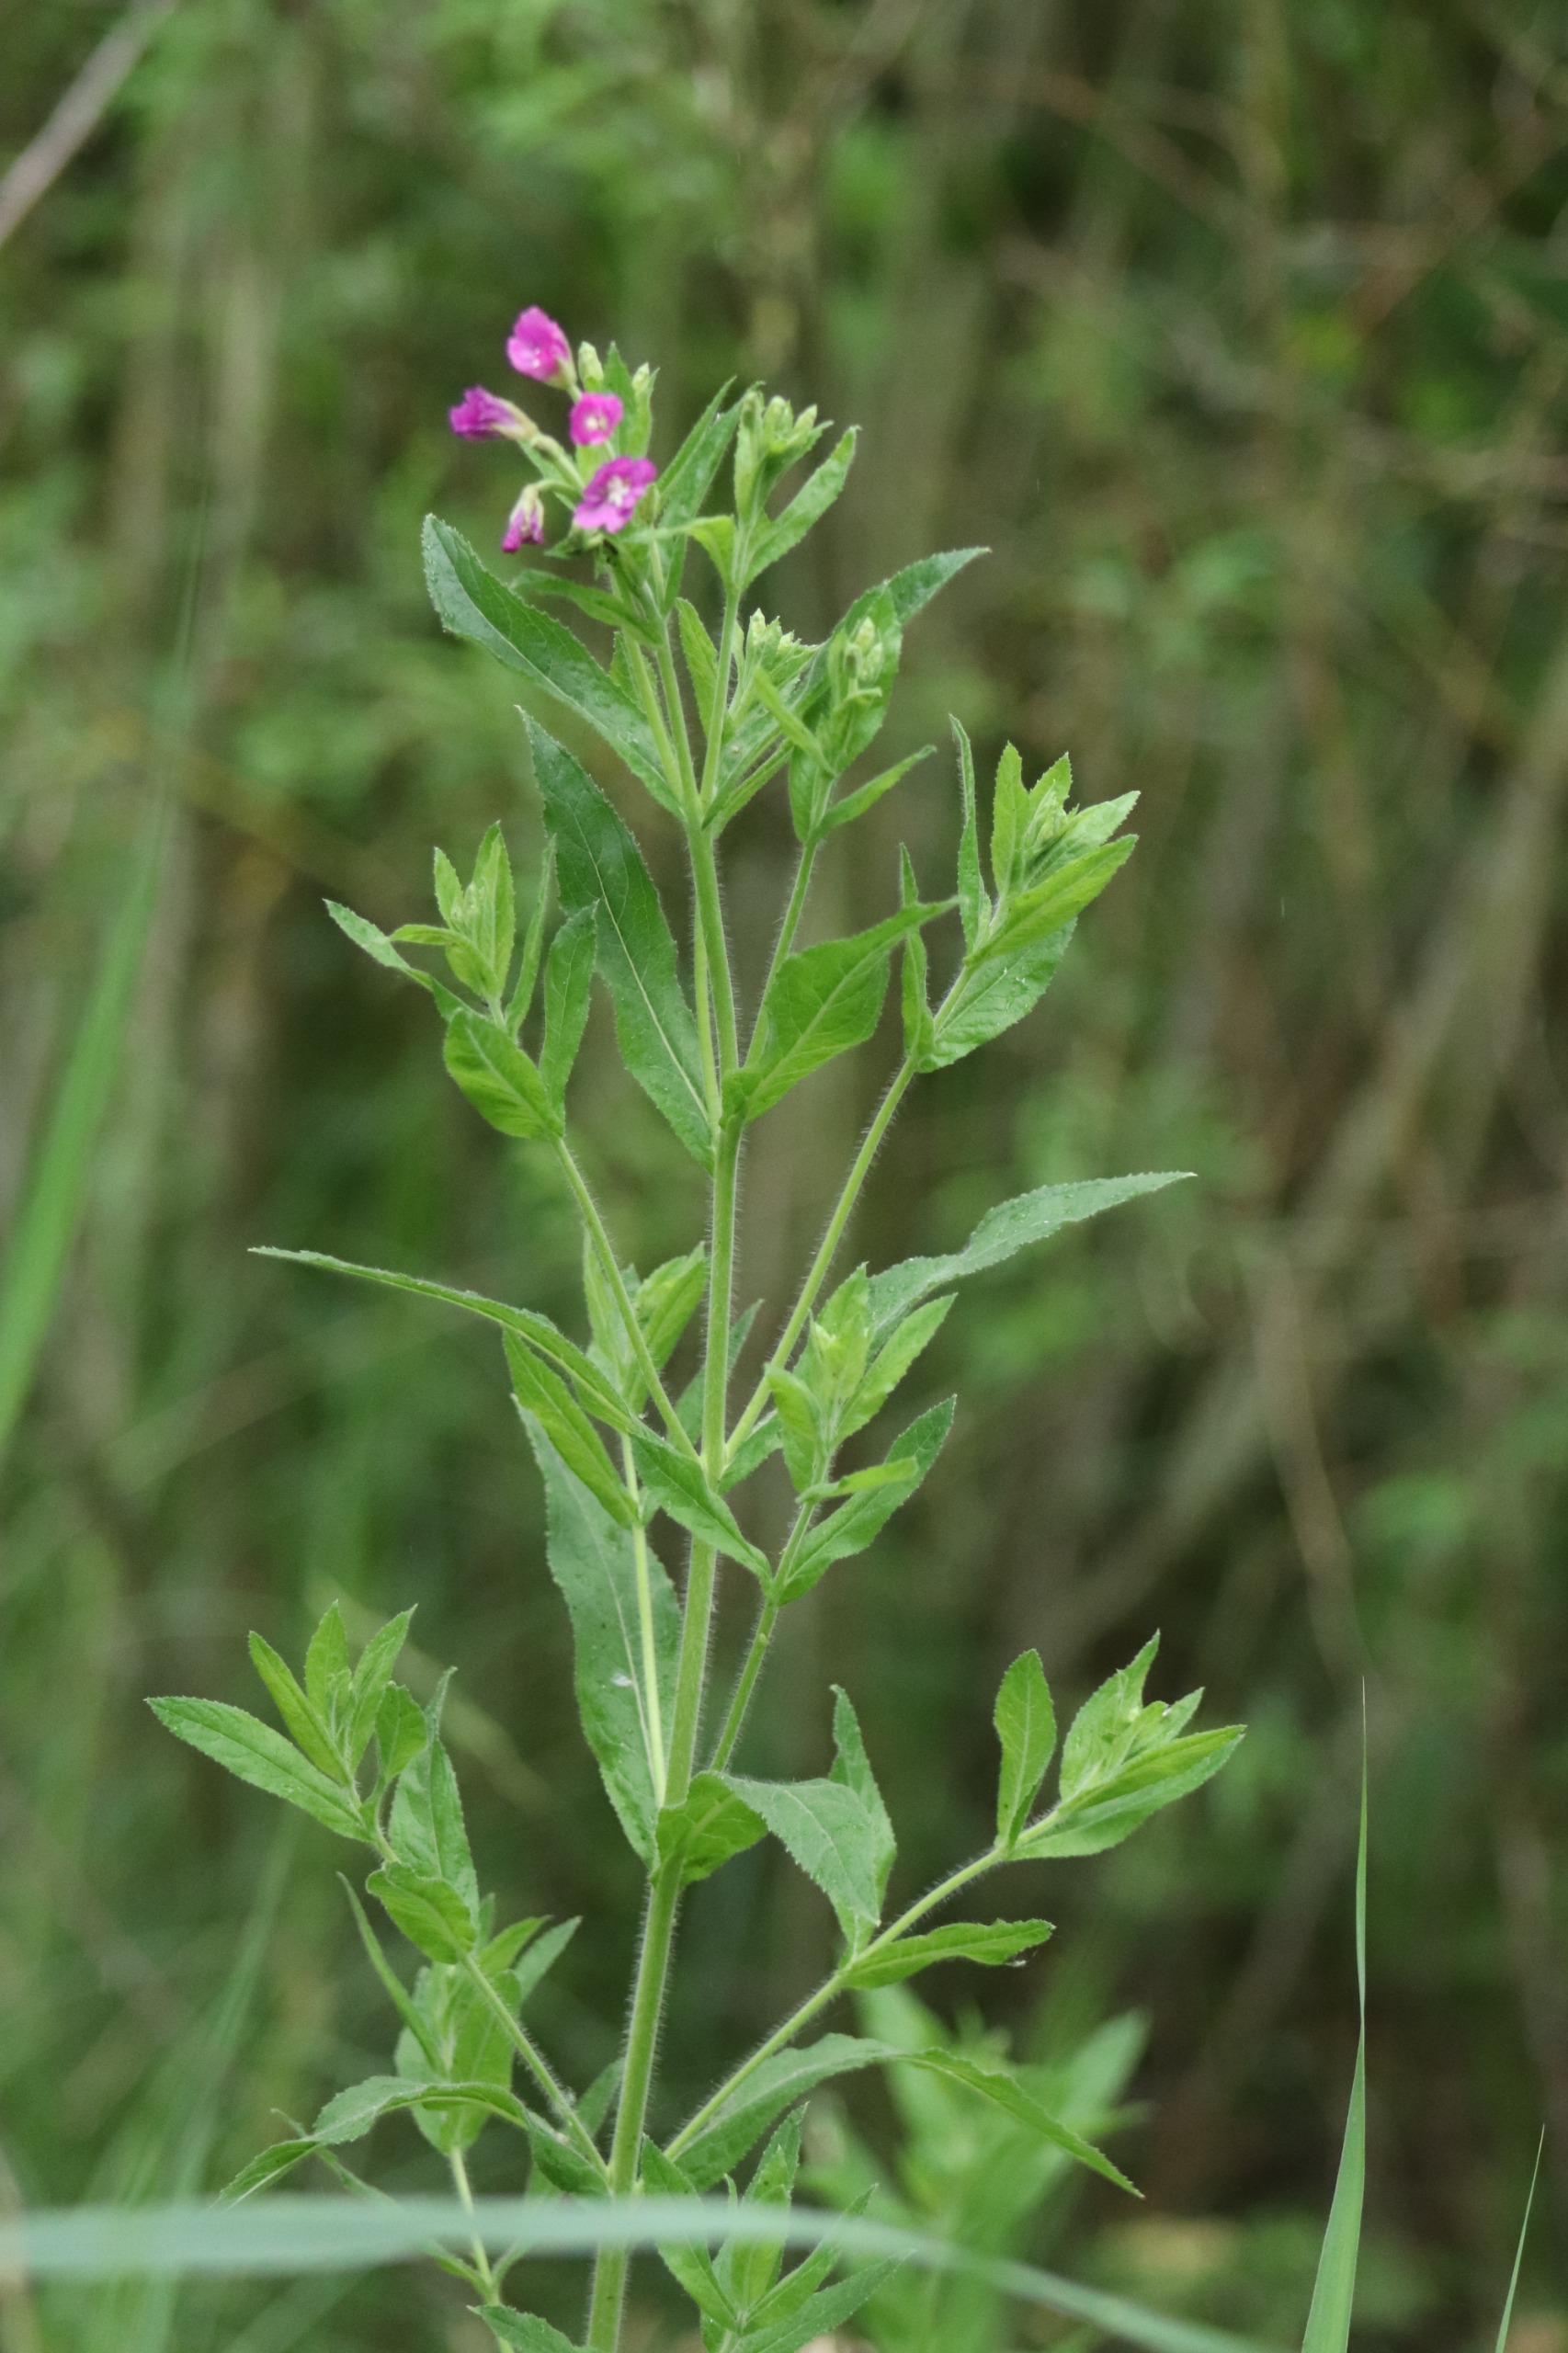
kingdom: Plantae
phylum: Tracheophyta
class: Magnoliopsida
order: Myrtales
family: Onagraceae
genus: Epilobium
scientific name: Epilobium hirsutum
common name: Lådden dueurt
